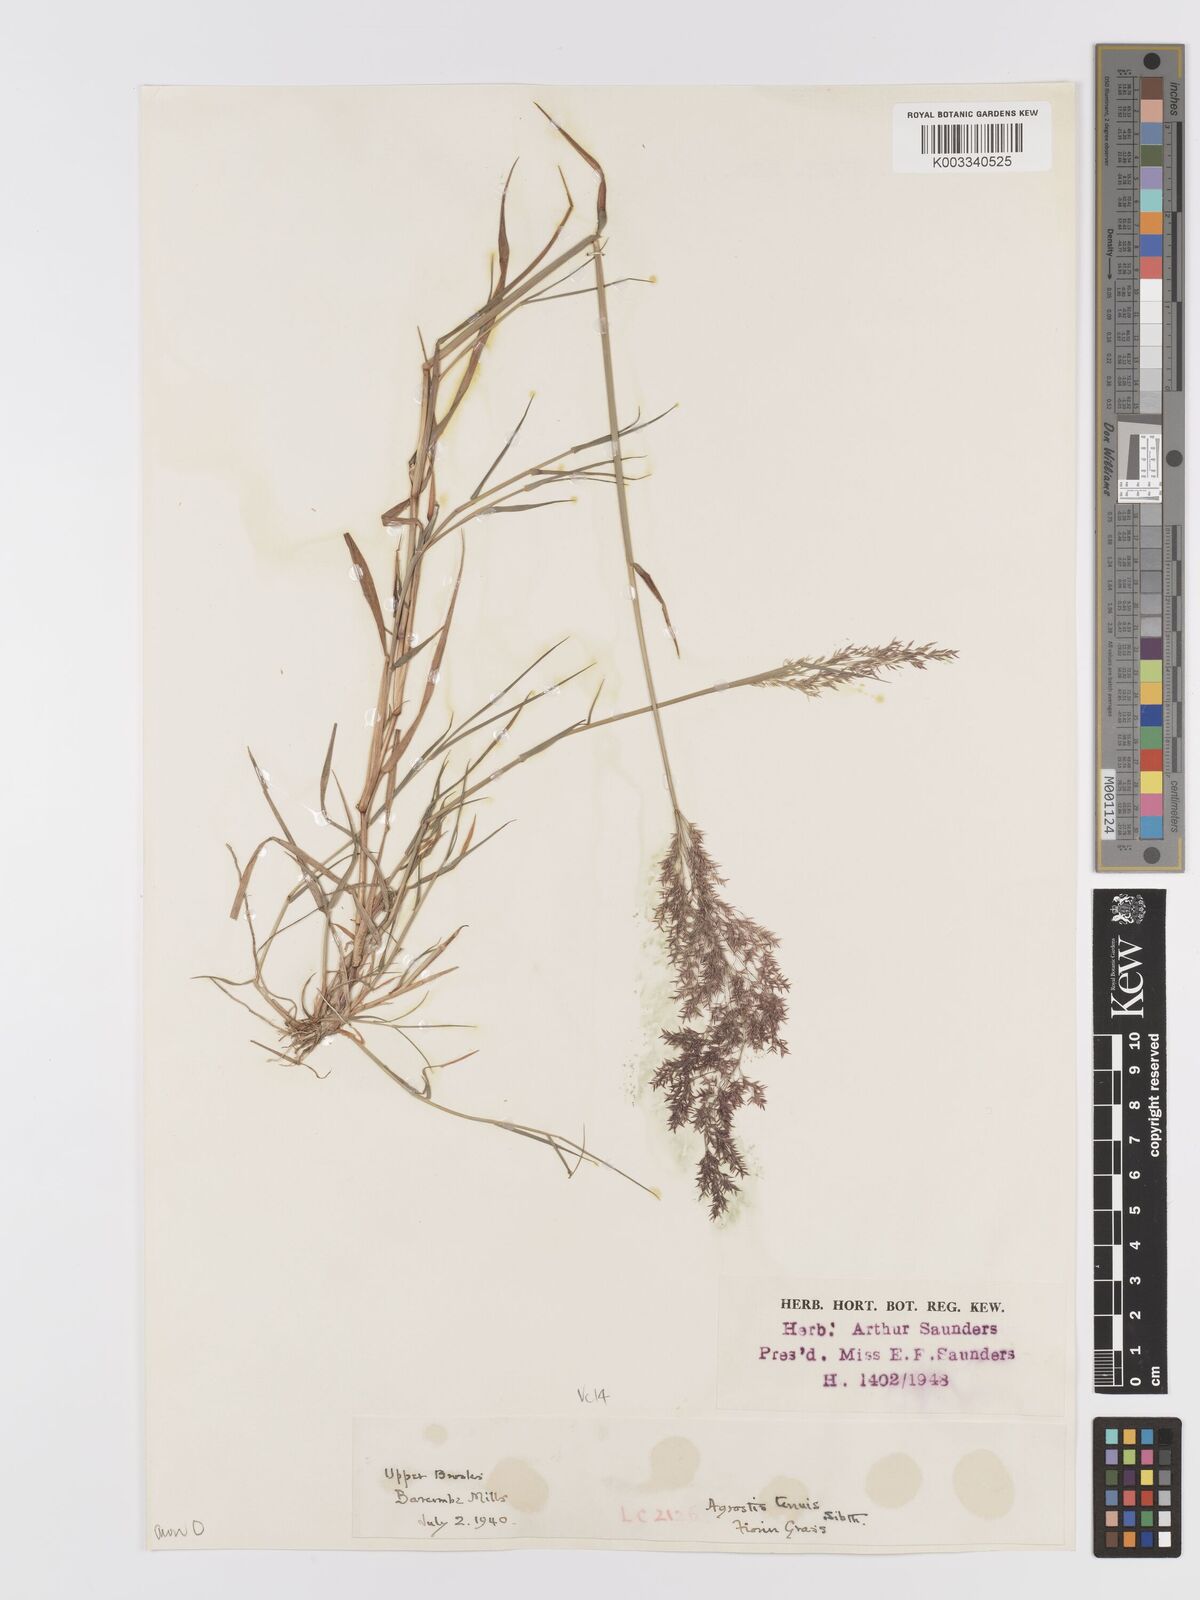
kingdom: Plantae
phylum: Tracheophyta
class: Liliopsida
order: Poales
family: Poaceae
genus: Agrostis
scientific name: Agrostis capillaris
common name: Colonial bentgrass
